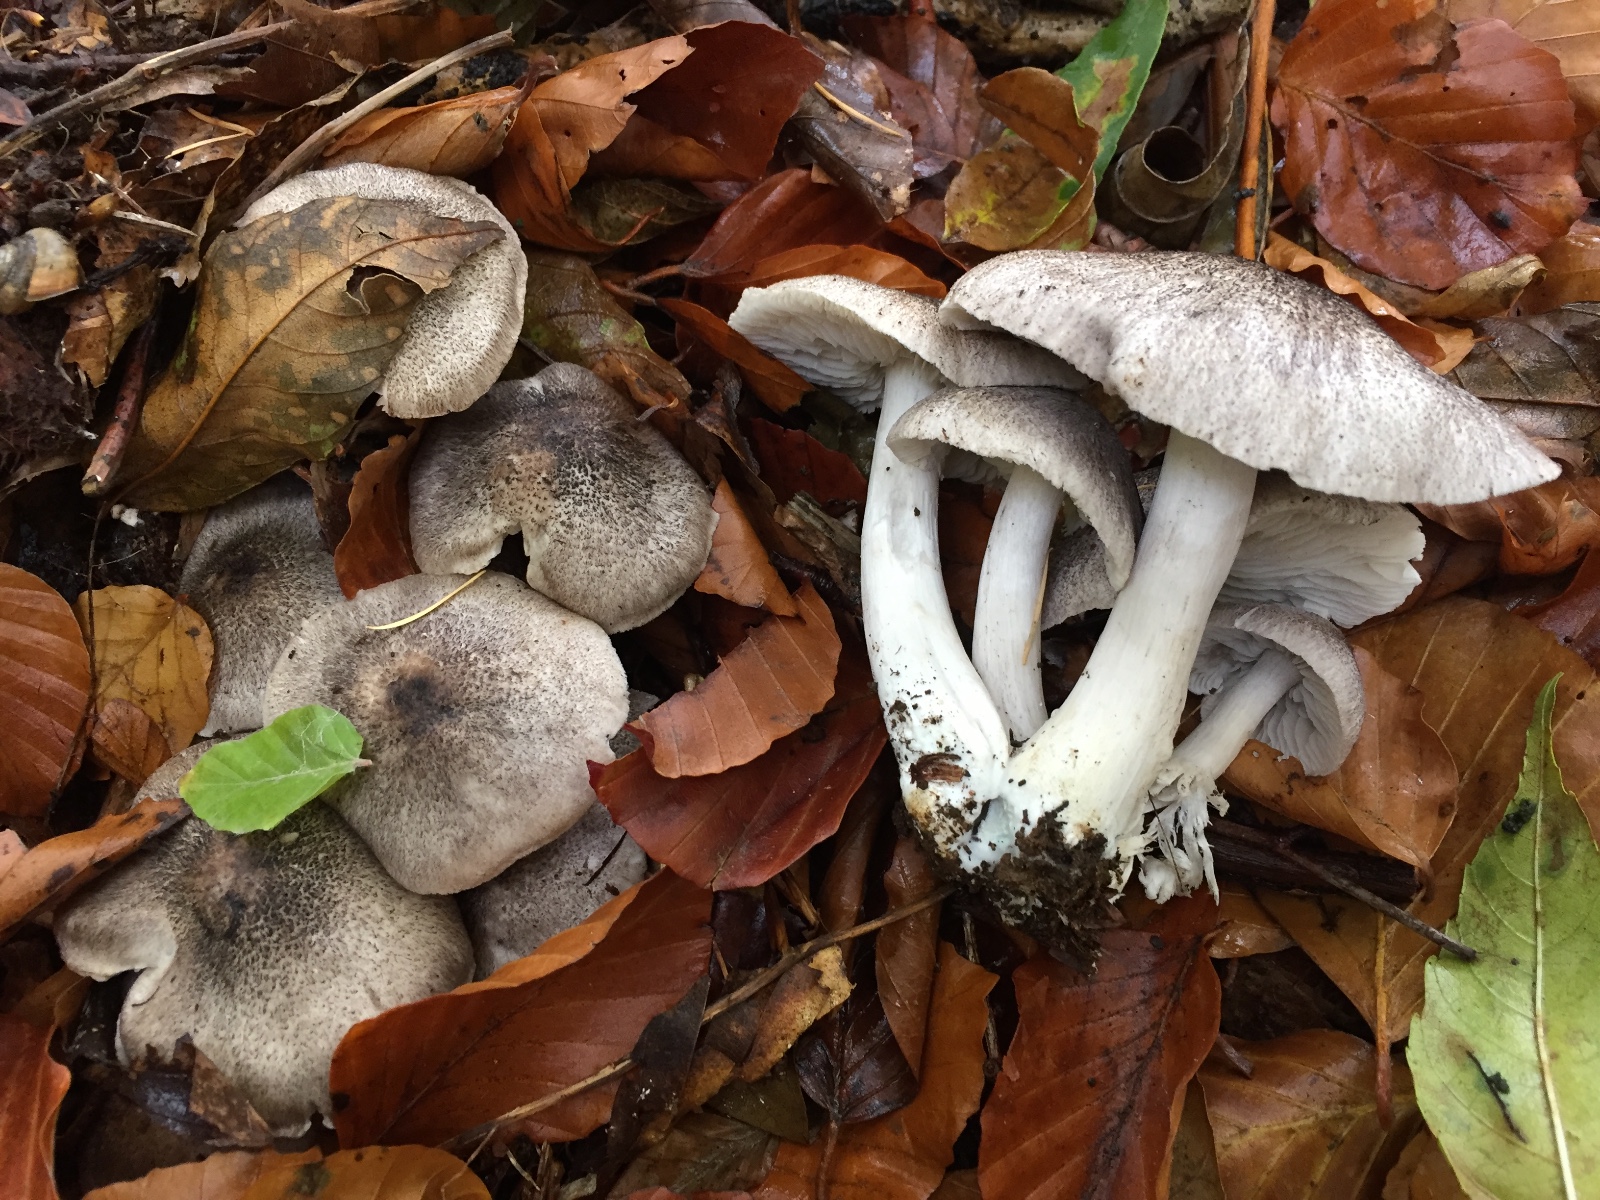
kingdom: Fungi
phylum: Basidiomycota
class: Agaricomycetes
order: Agaricales
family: Tricholomataceae
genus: Tricholoma
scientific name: Tricholoma orirubens
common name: rødbladet ridderhat
